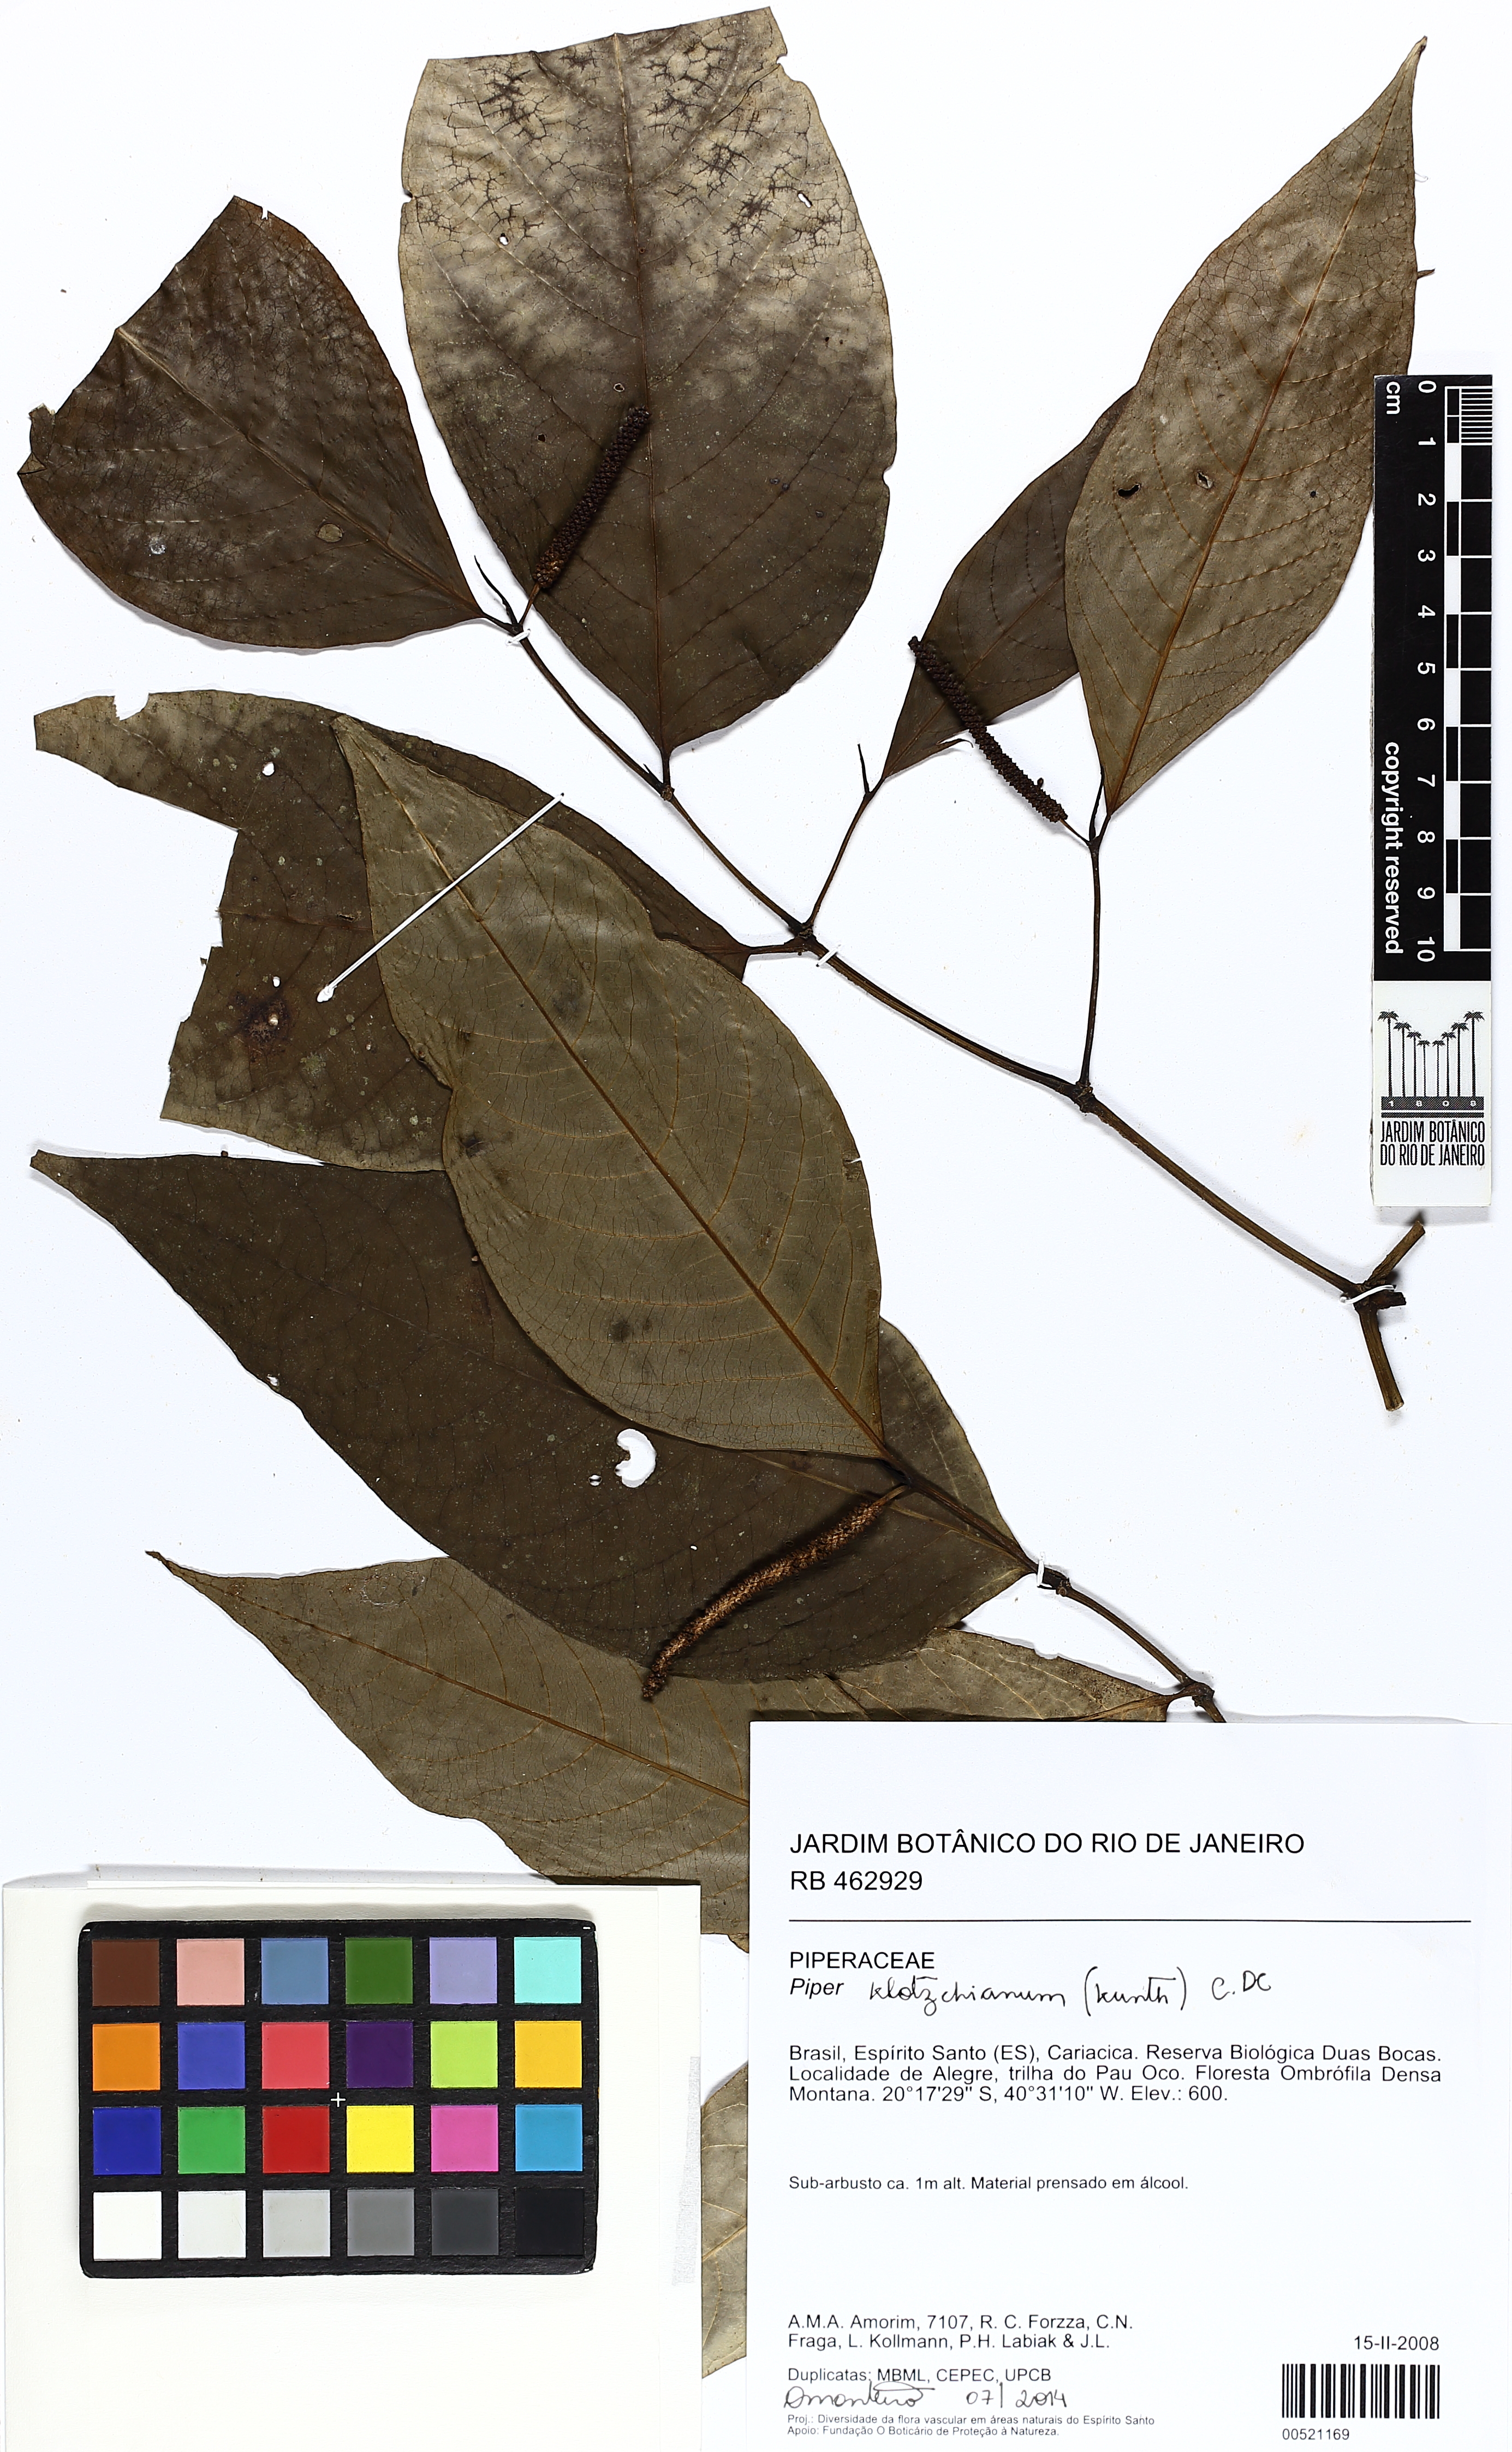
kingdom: Plantae
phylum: Tracheophyta
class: Magnoliopsida
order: Piperales
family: Piperaceae
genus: Piper
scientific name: Piper bicorne
